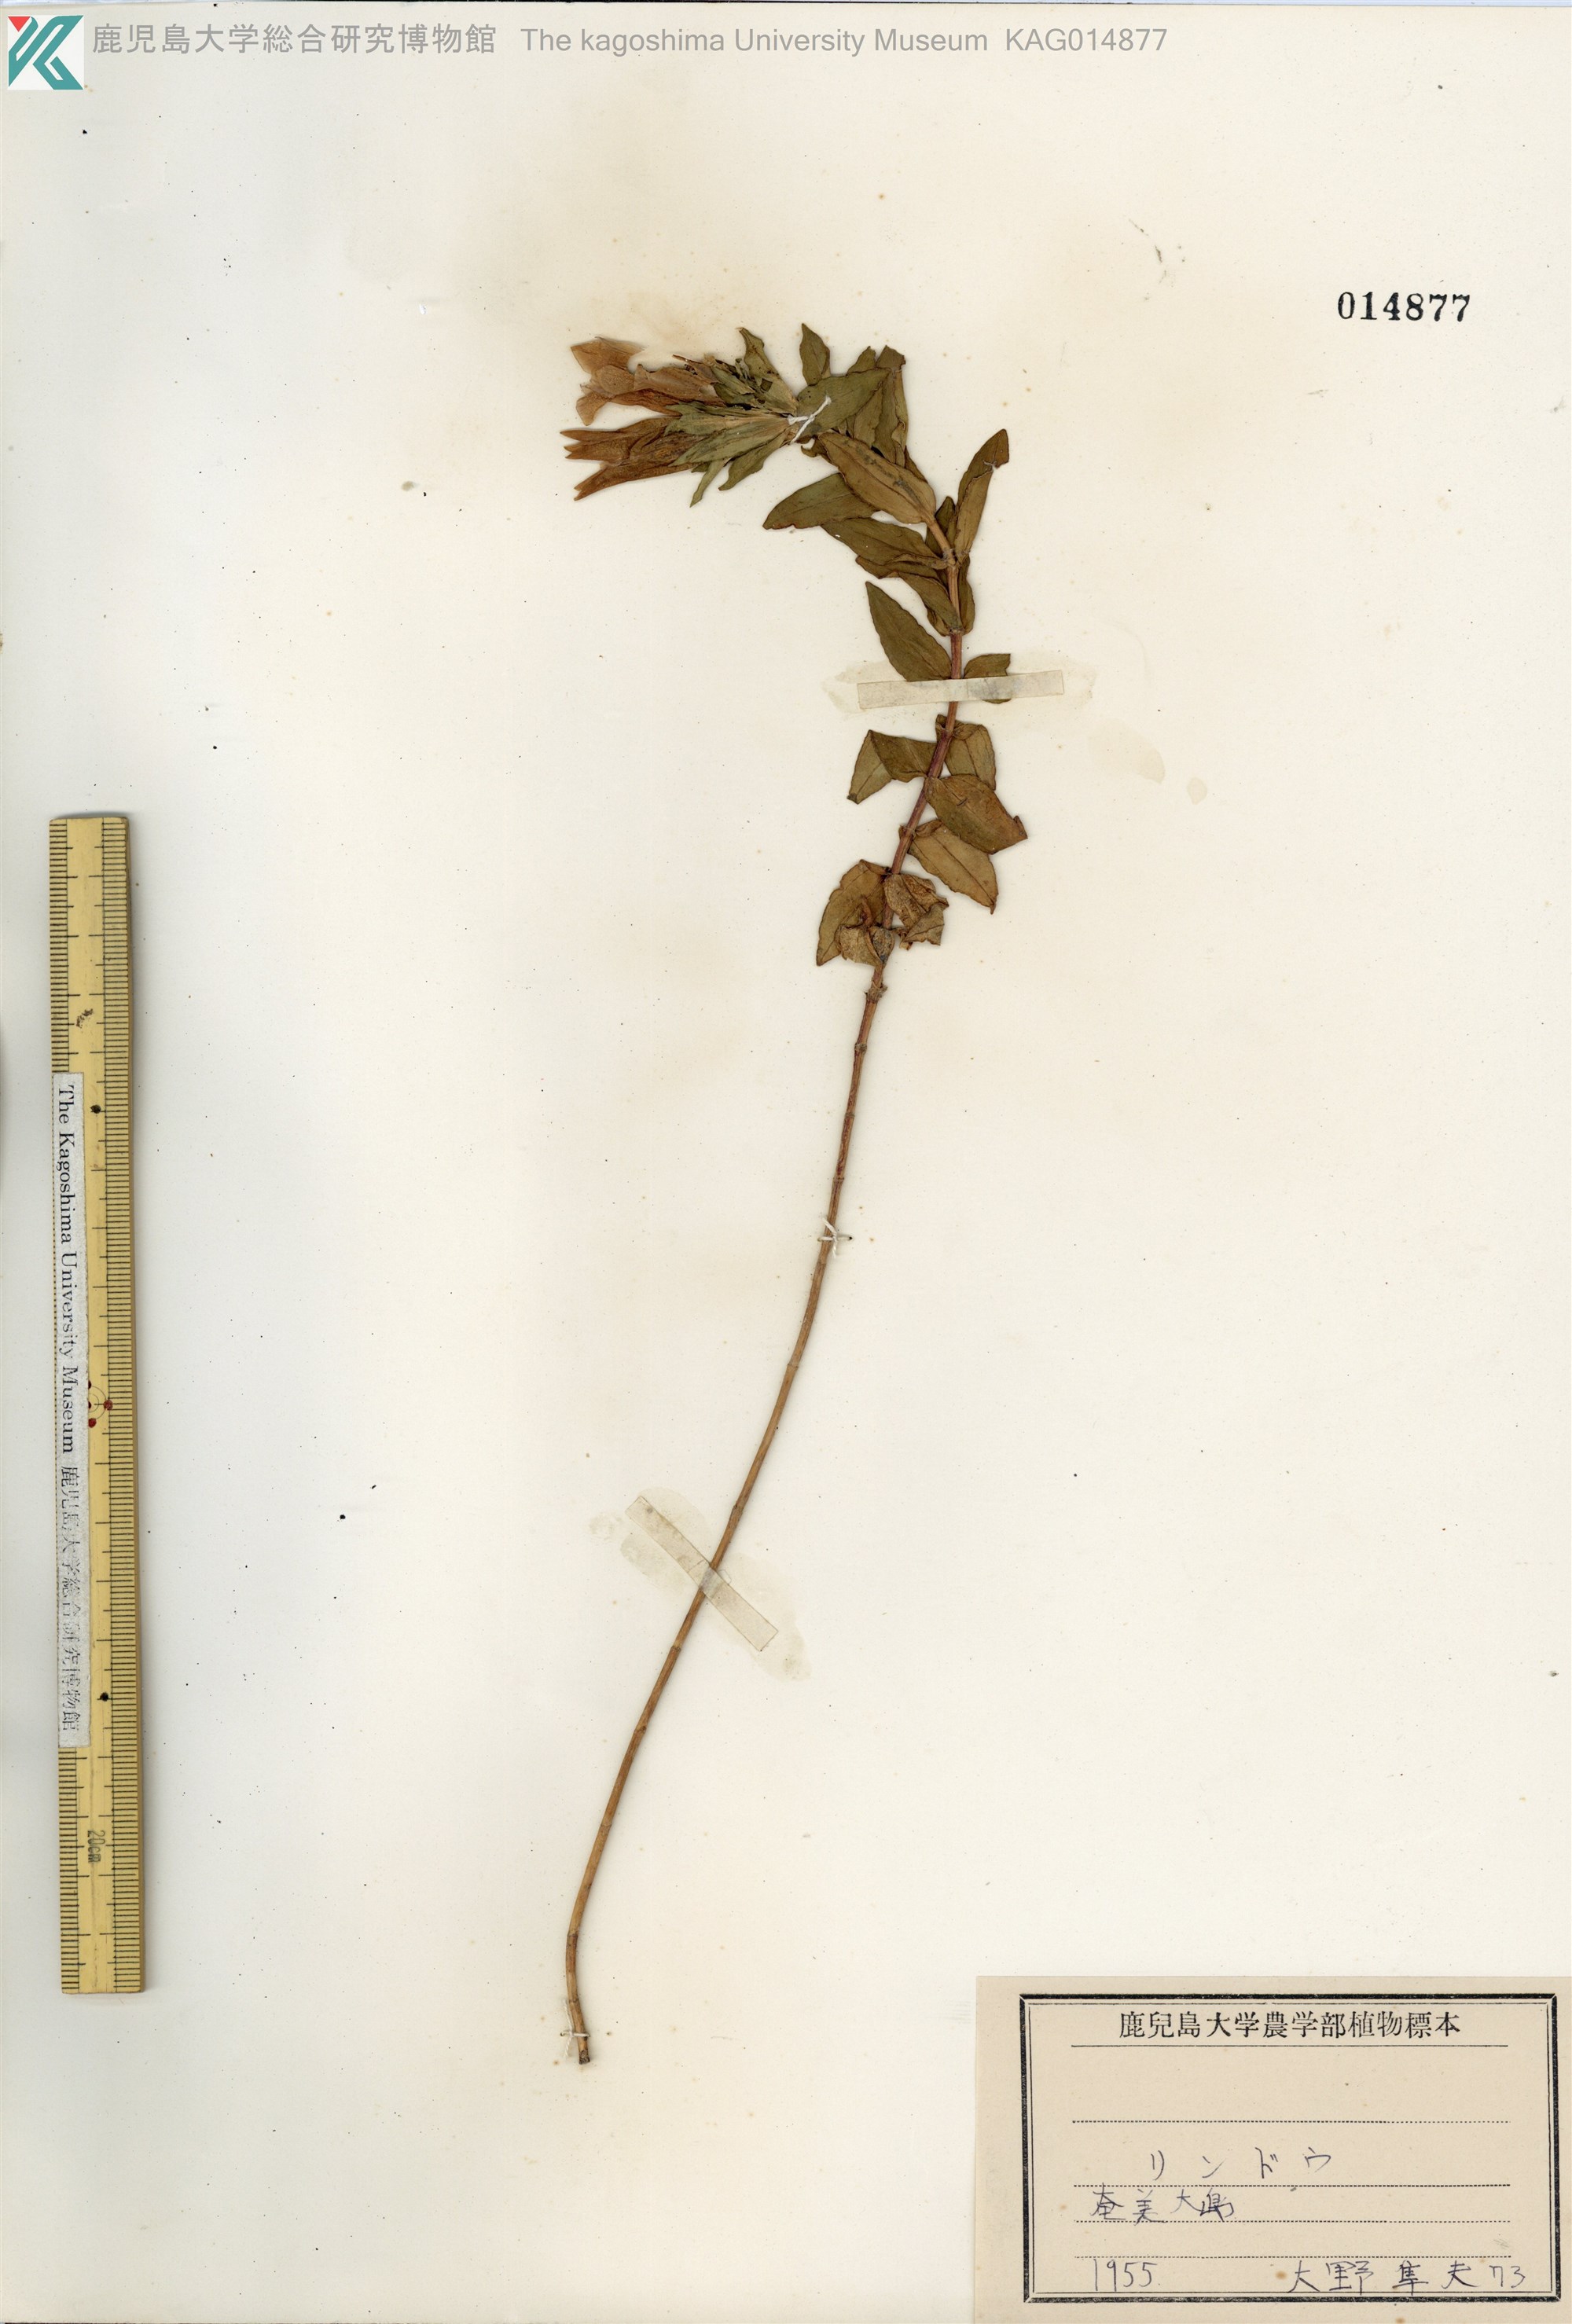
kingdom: Plantae
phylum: Tracheophyta
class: Magnoliopsida
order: Gentianales
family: Gentianaceae
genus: Gentiana
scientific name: Gentiana scabra
